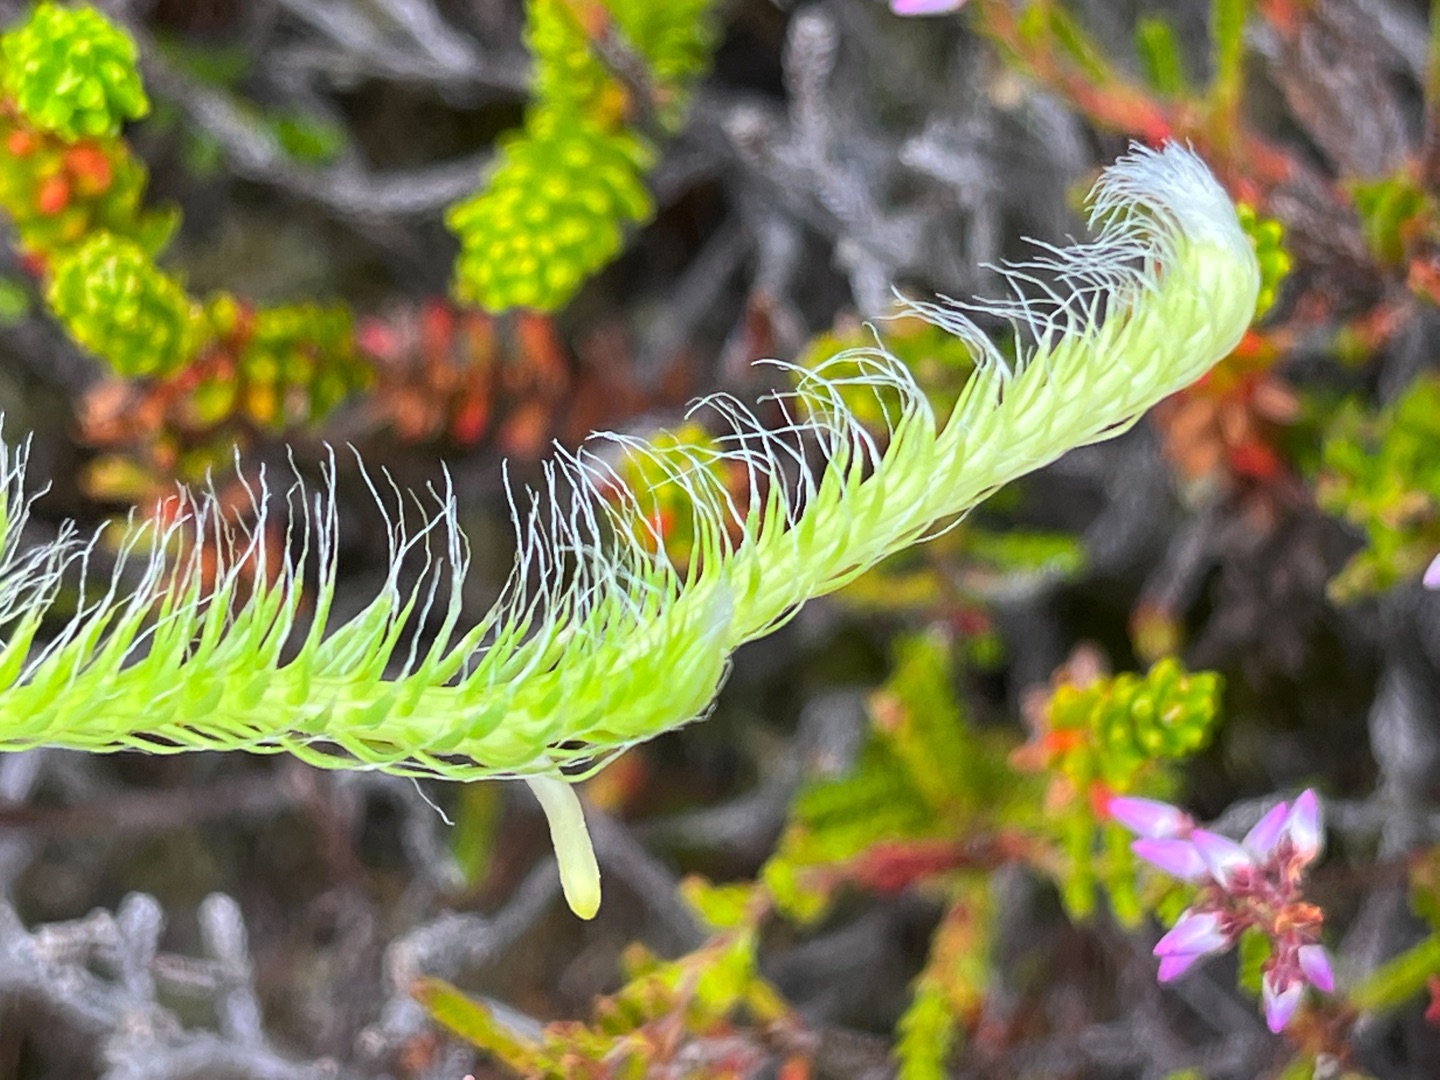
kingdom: Plantae
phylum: Tracheophyta
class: Lycopodiopsida
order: Lycopodiales
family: Lycopodiaceae
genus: Lycopodium
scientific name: Lycopodium clavatum
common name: Almindelig ulvefod
